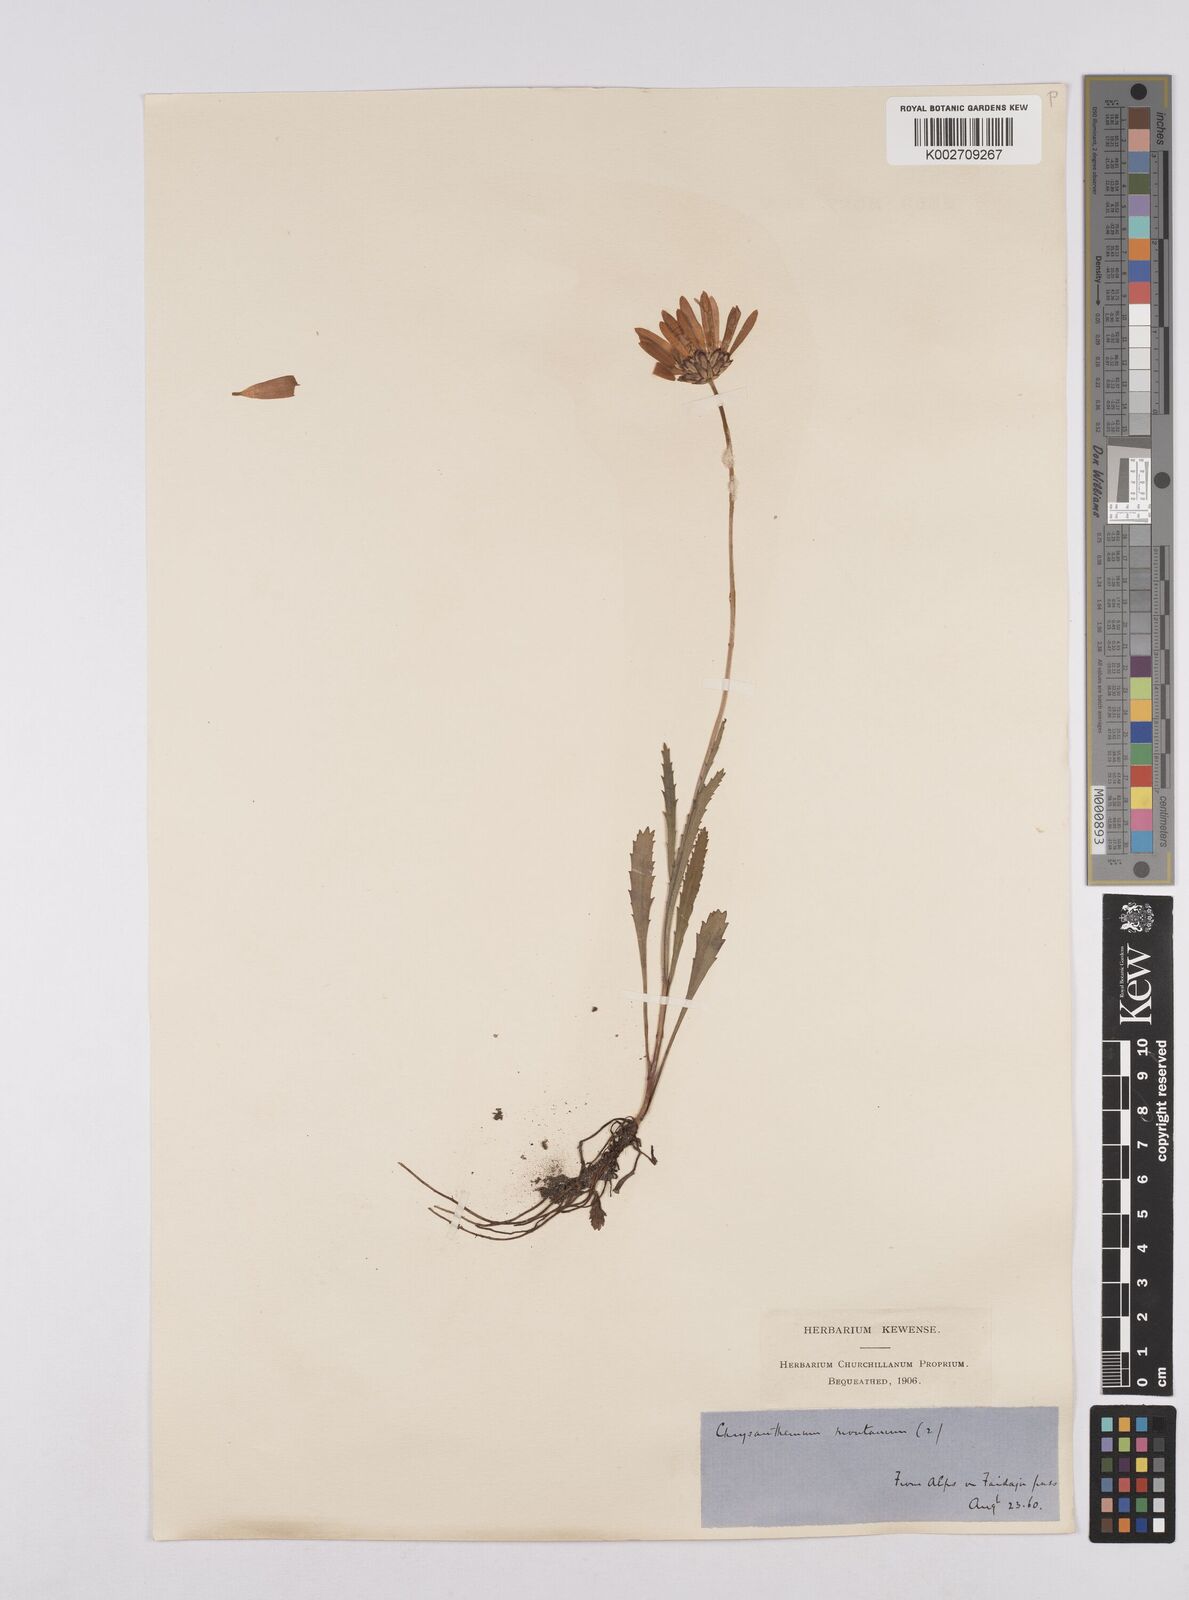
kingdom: Plantae
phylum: Tracheophyta
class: Magnoliopsida
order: Asterales
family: Asteraceae
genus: Leucanthemum
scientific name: Leucanthemum chloroticum
